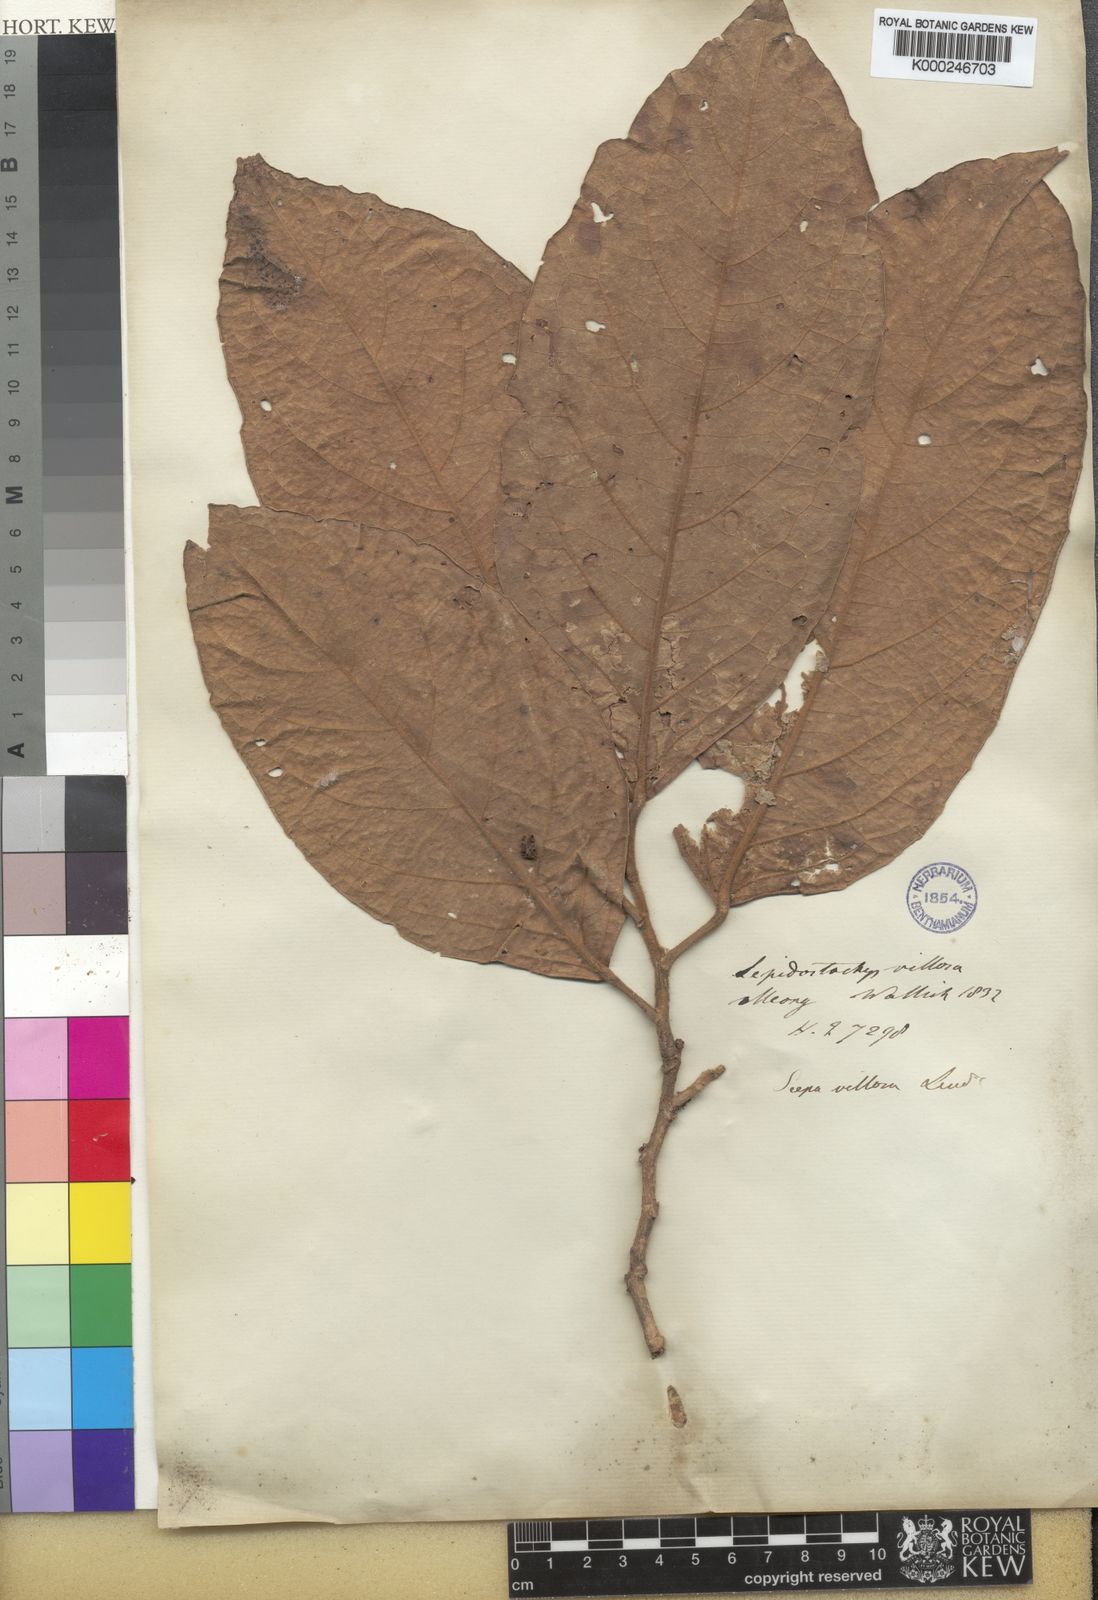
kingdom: Plantae
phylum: Tracheophyta
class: Magnoliopsida
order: Malpighiales
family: Phyllanthaceae
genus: Aporosa
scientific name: Aporosa villosa
